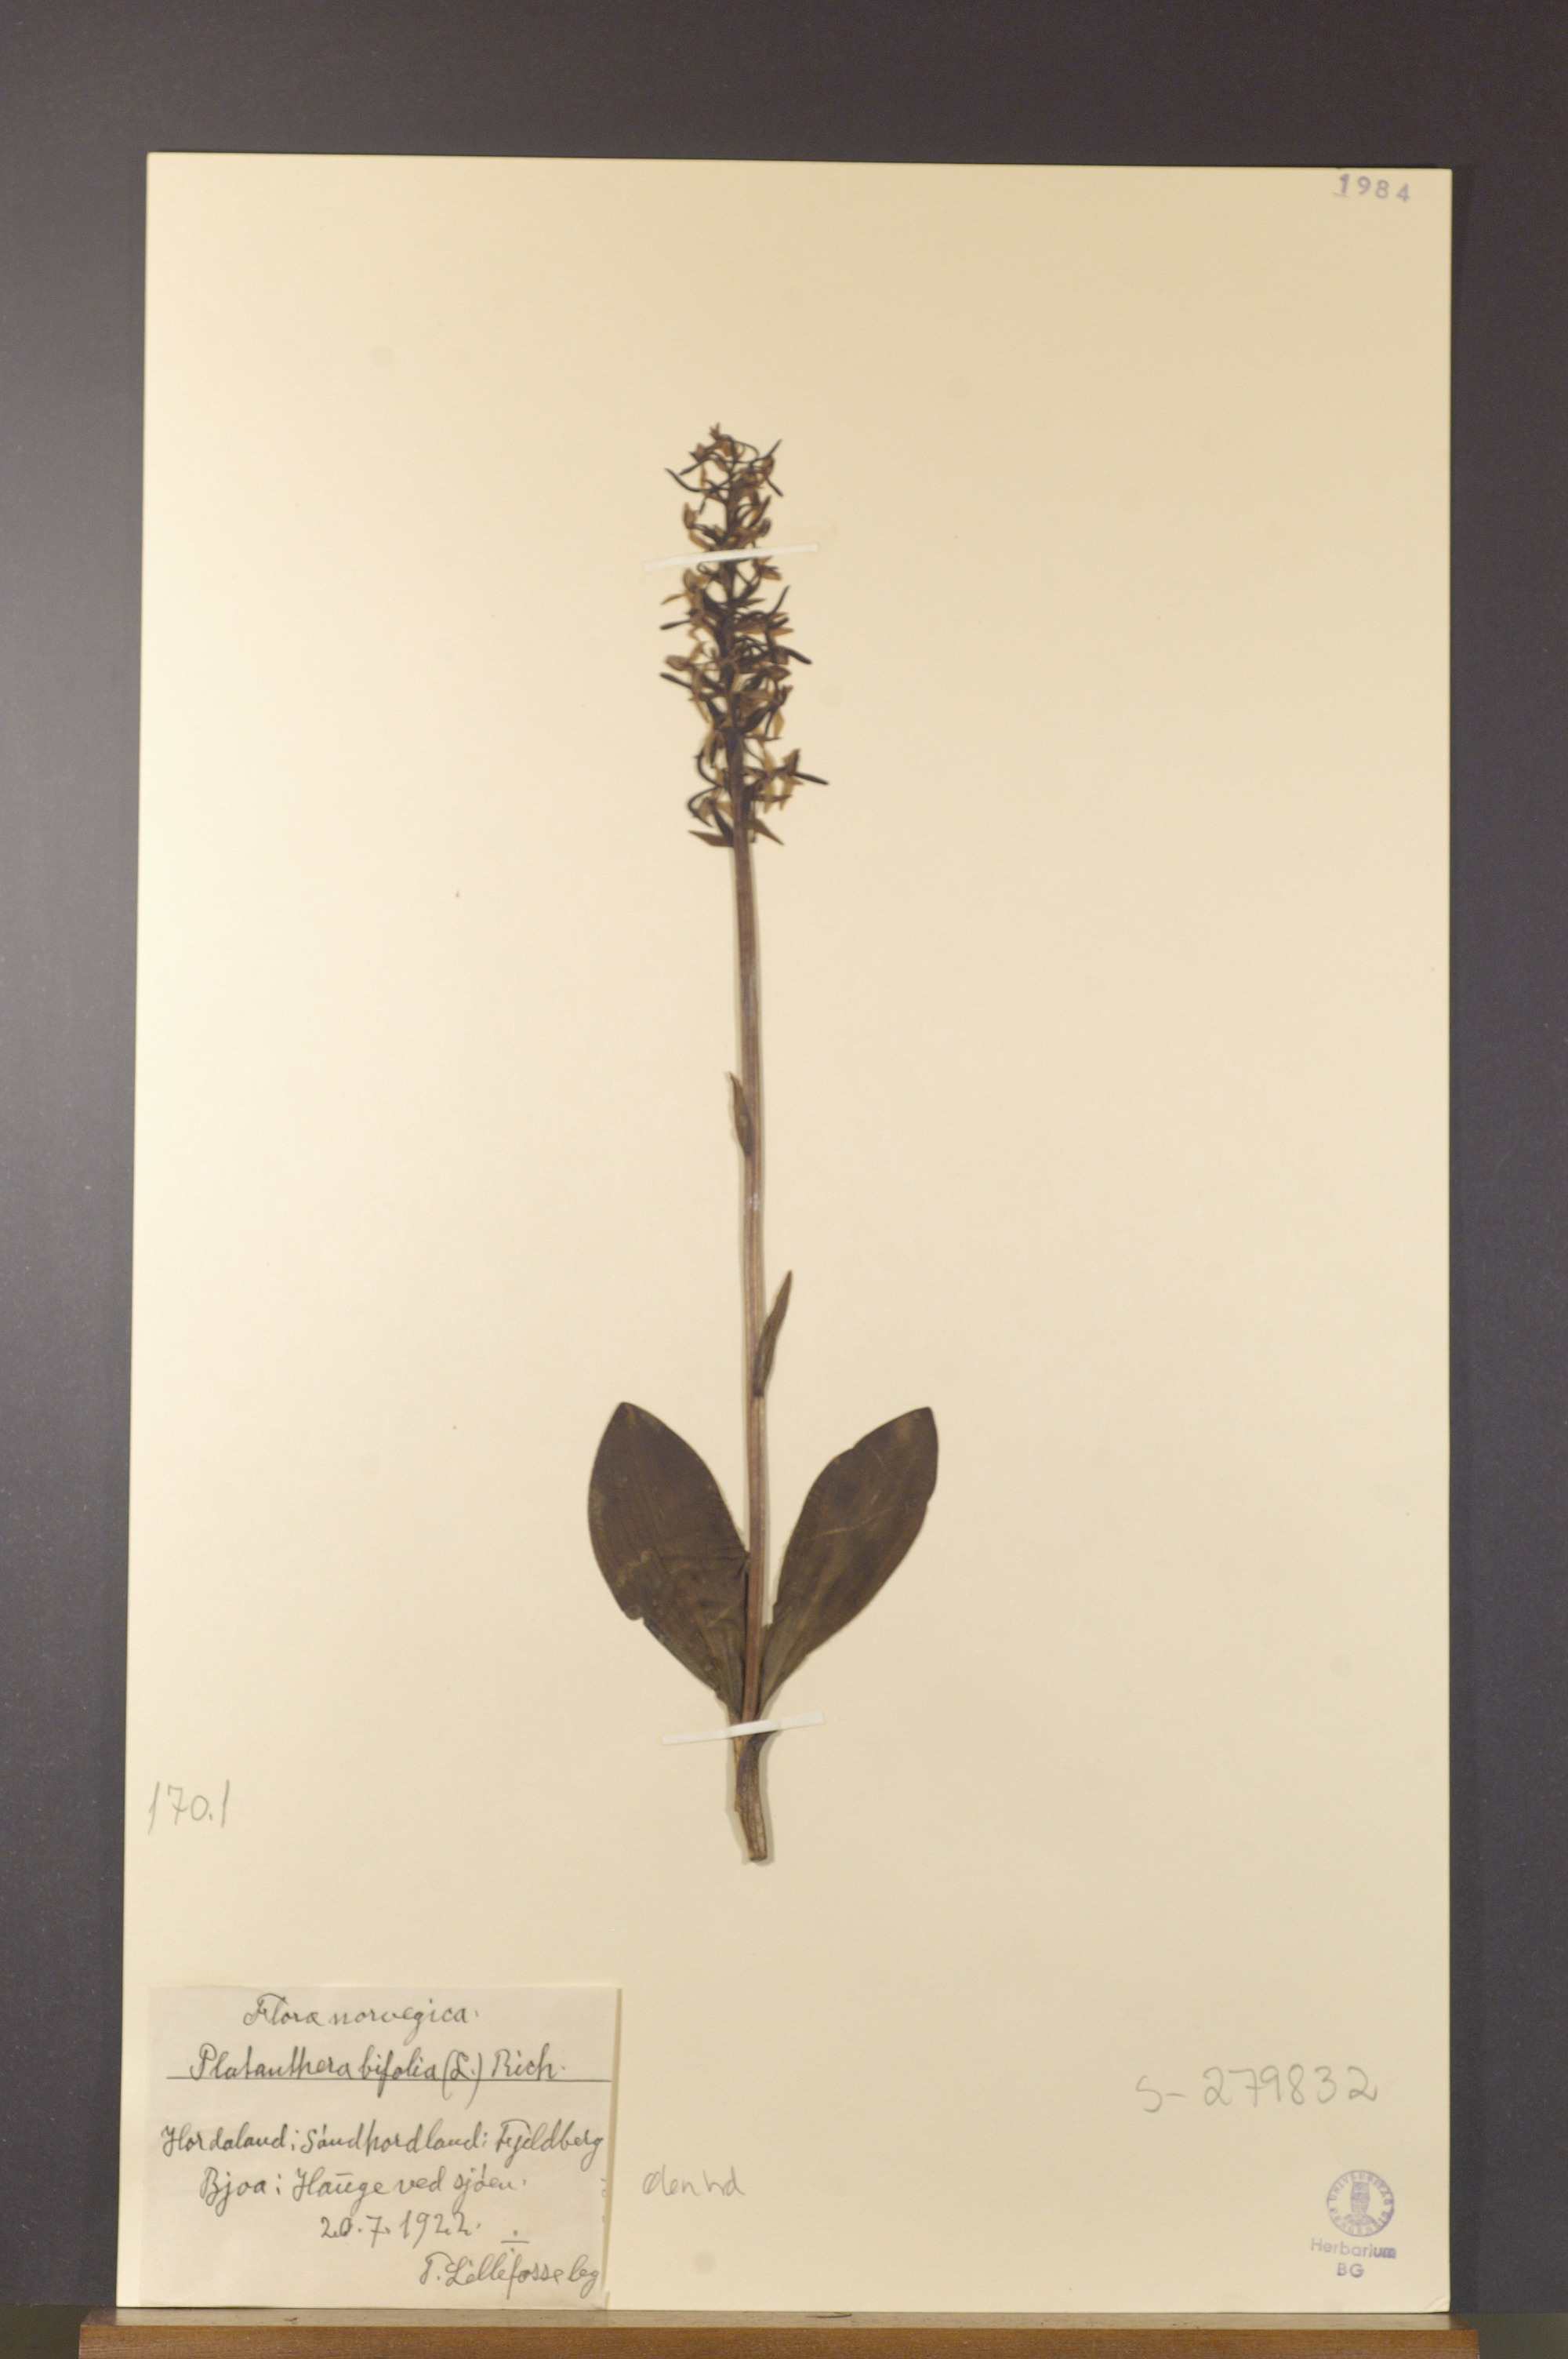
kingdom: Plantae
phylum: Tracheophyta
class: Liliopsida
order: Asparagales
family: Orchidaceae
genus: Platanthera
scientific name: Platanthera bifolia
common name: Lesser butterfly-orchid
